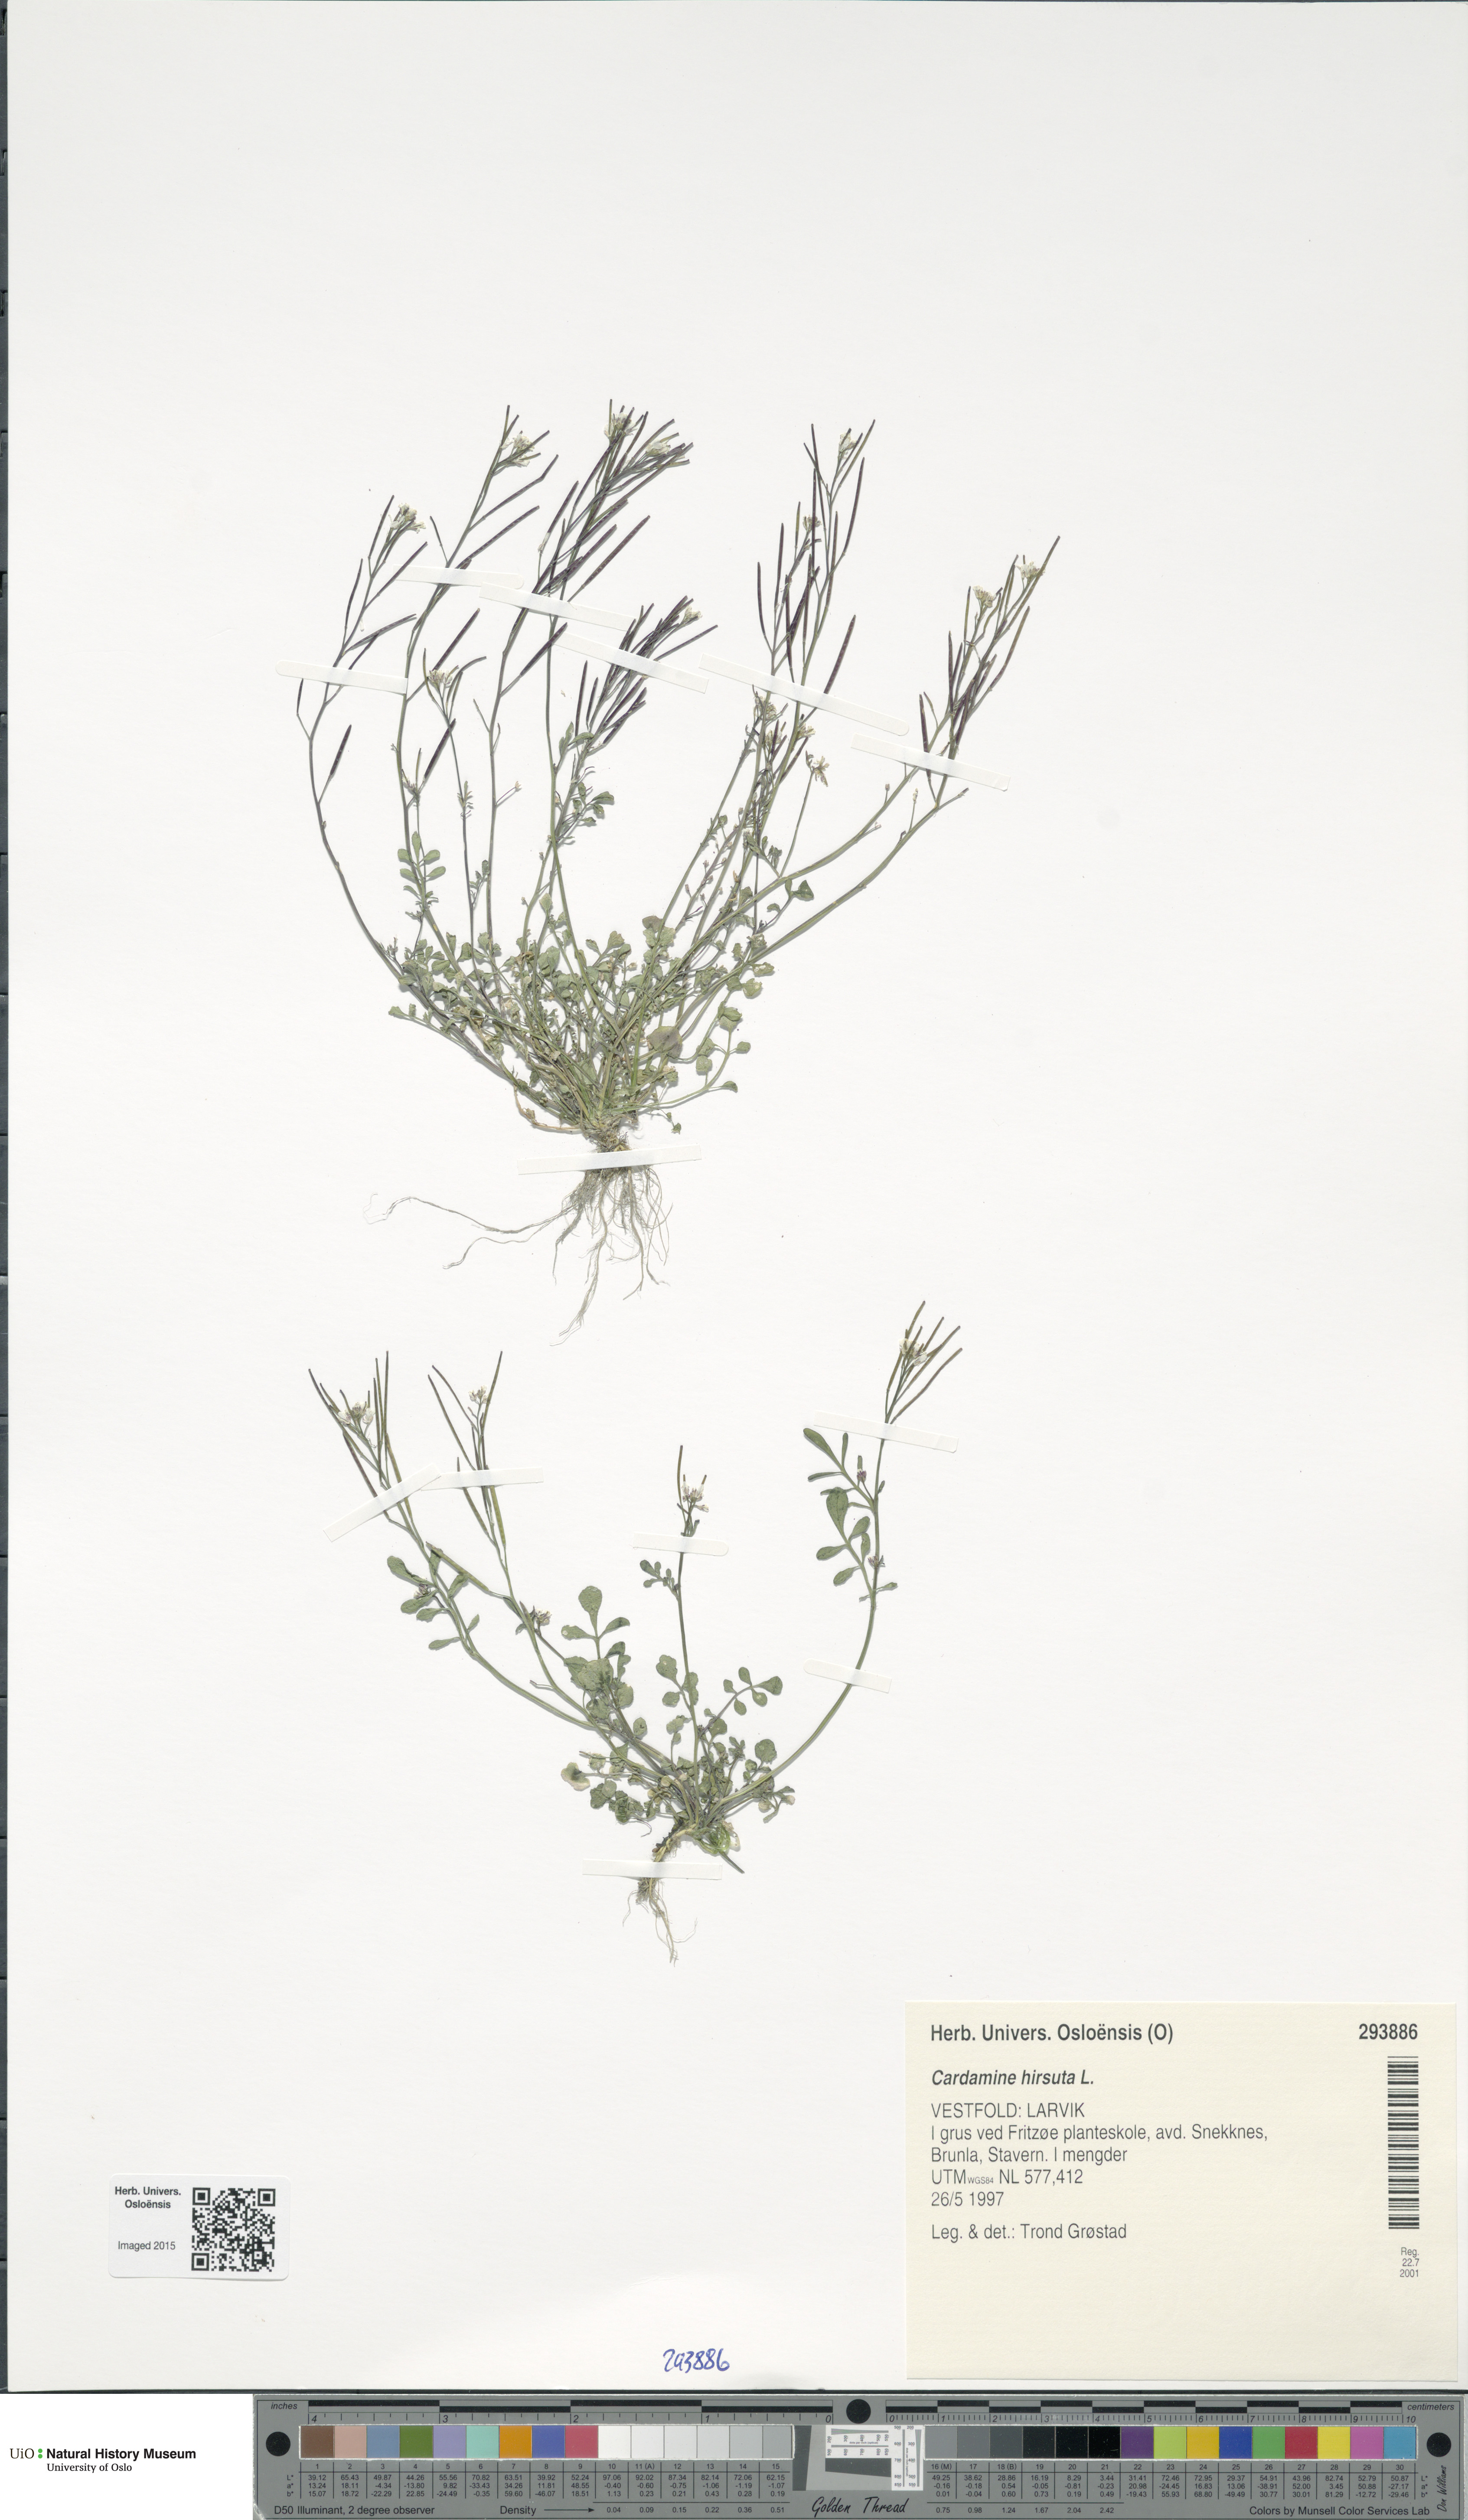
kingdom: Plantae
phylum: Tracheophyta
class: Magnoliopsida
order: Brassicales
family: Brassicaceae
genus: Cardamine
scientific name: Cardamine hirsuta
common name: Hairy bittercress
